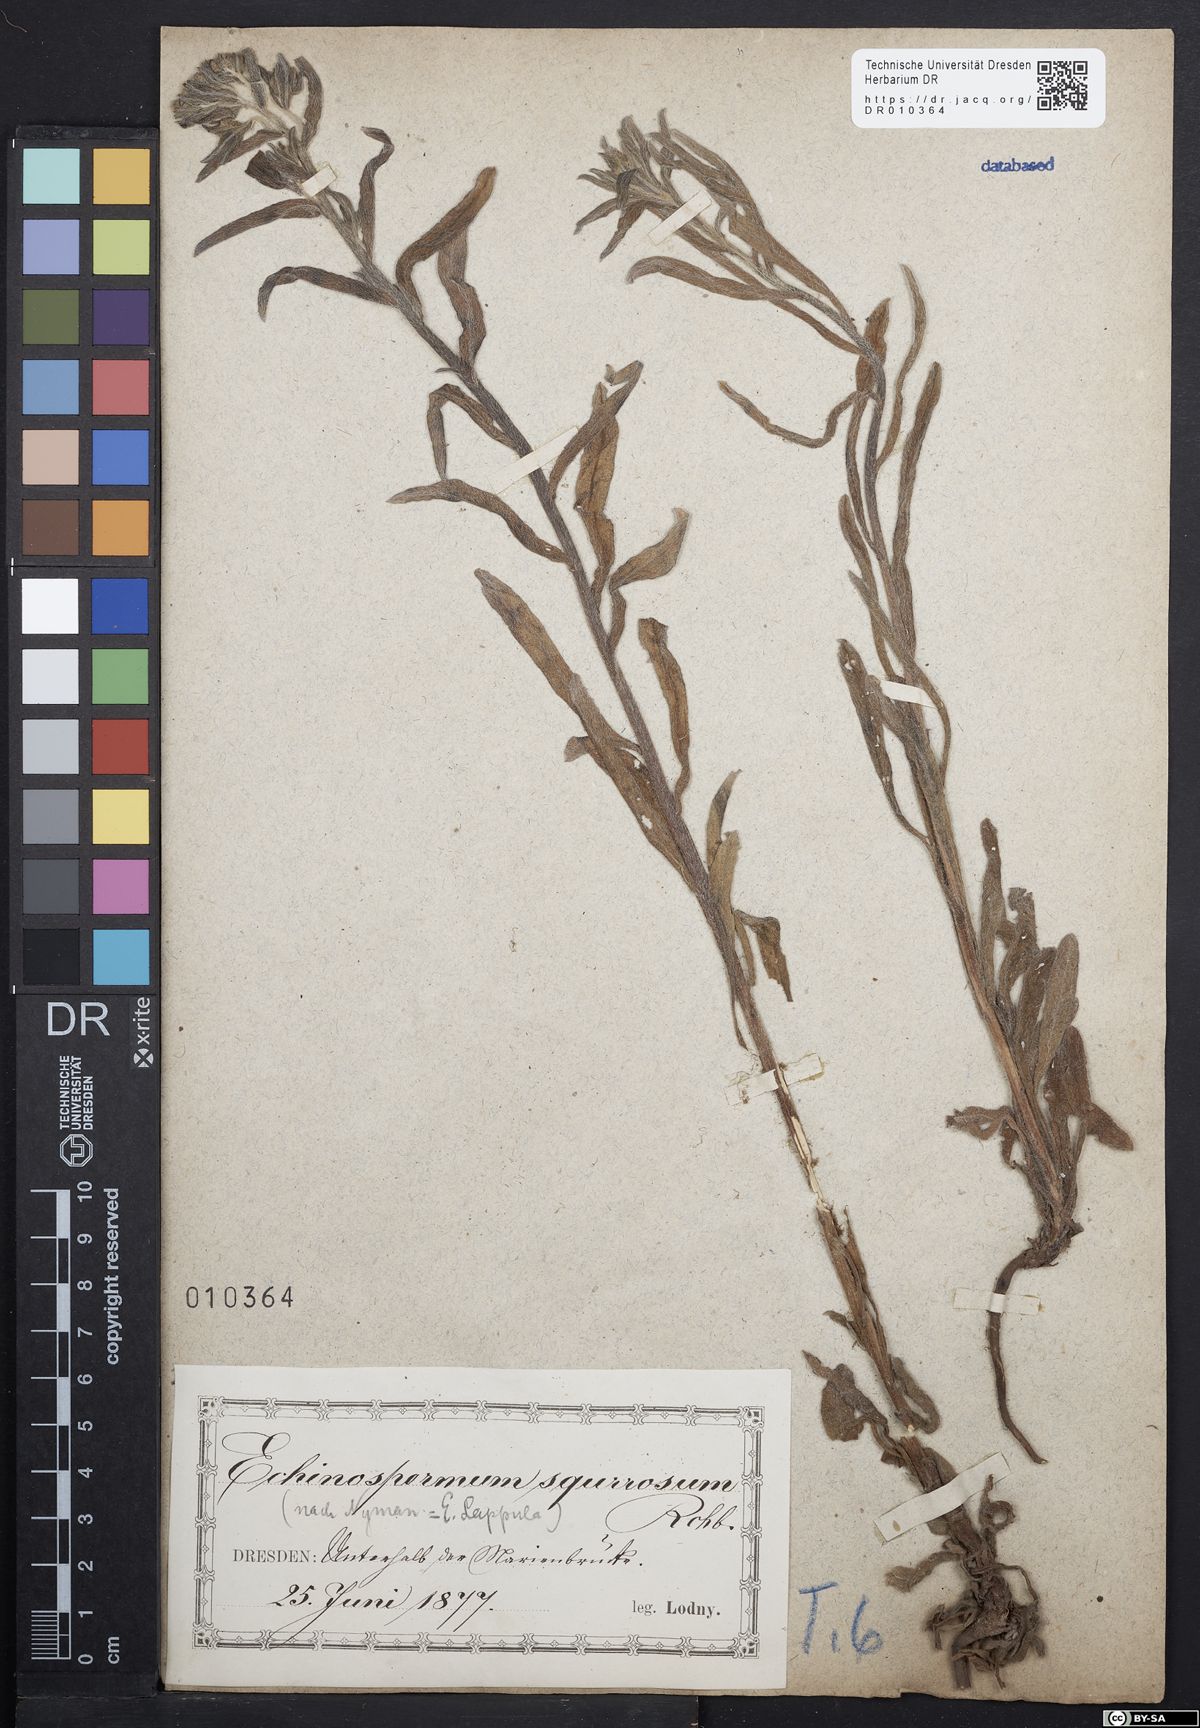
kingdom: Plantae
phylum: Tracheophyta
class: Magnoliopsida
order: Boraginales
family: Boraginaceae
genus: Lappula
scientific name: Lappula squarrosa
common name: European stickseed
